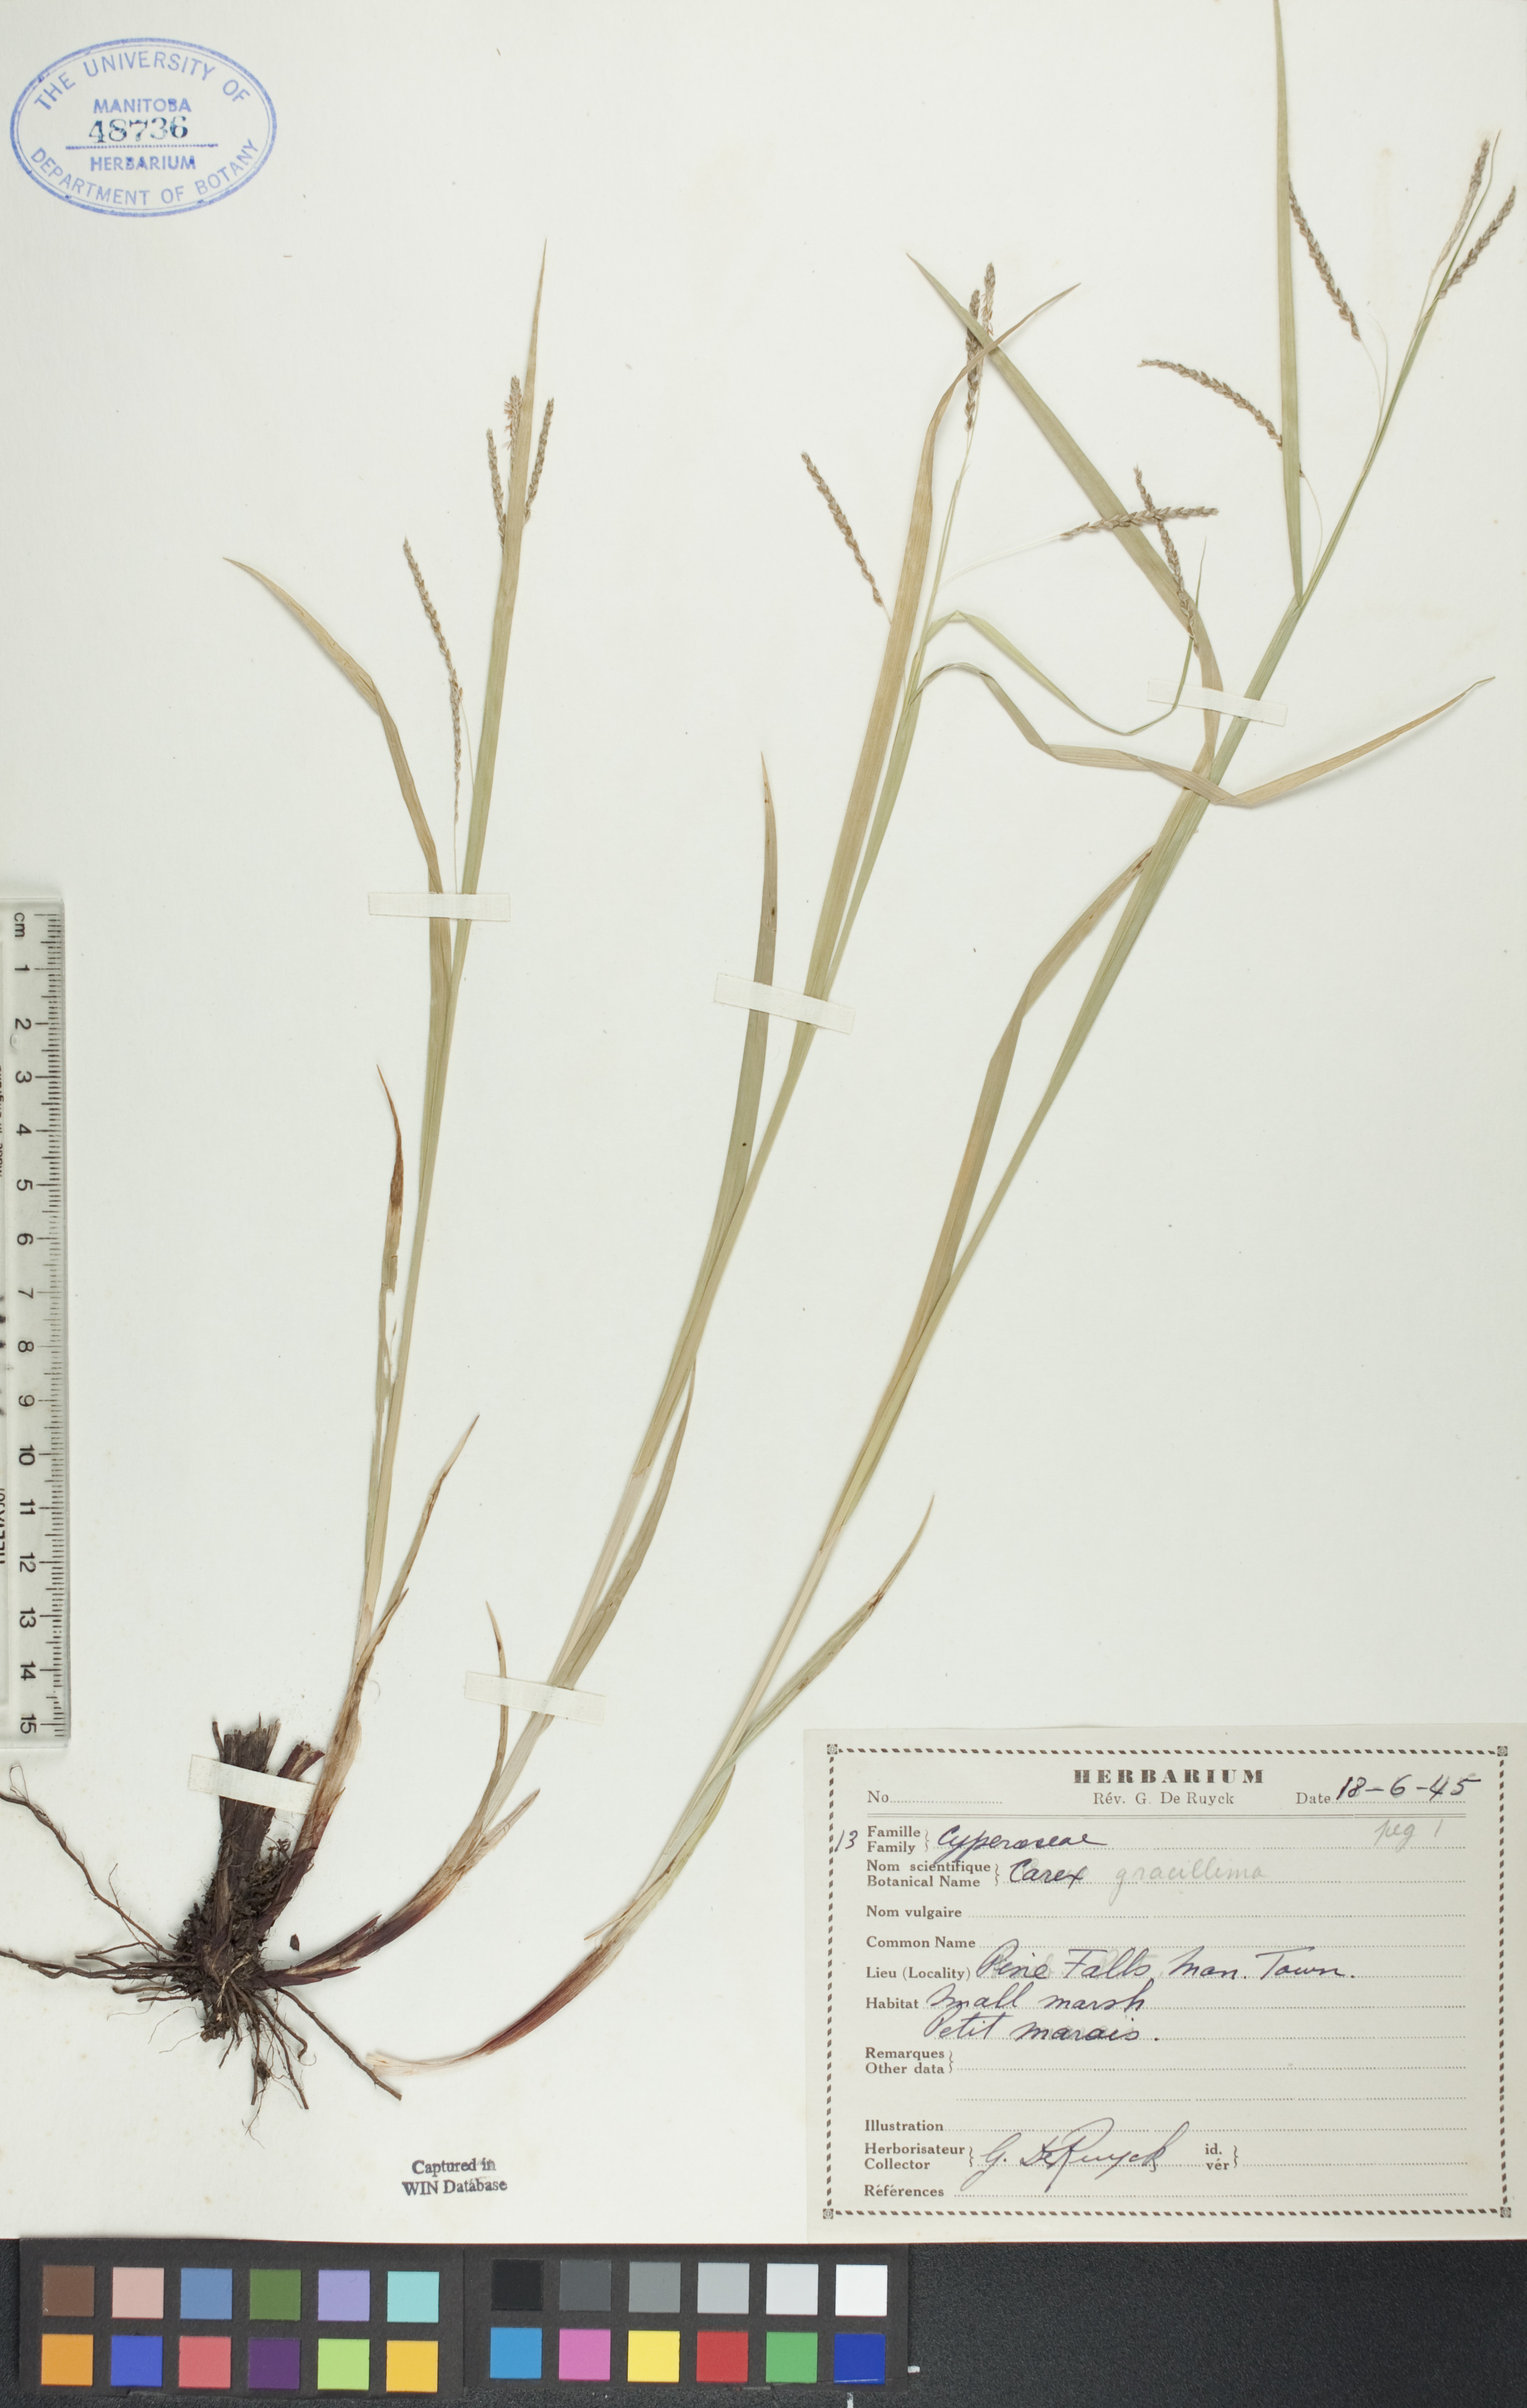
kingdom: Plantae
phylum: Tracheophyta
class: Liliopsida
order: Poales
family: Cyperaceae
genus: Carex
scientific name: Carex gracillima
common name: Graceful sedge
